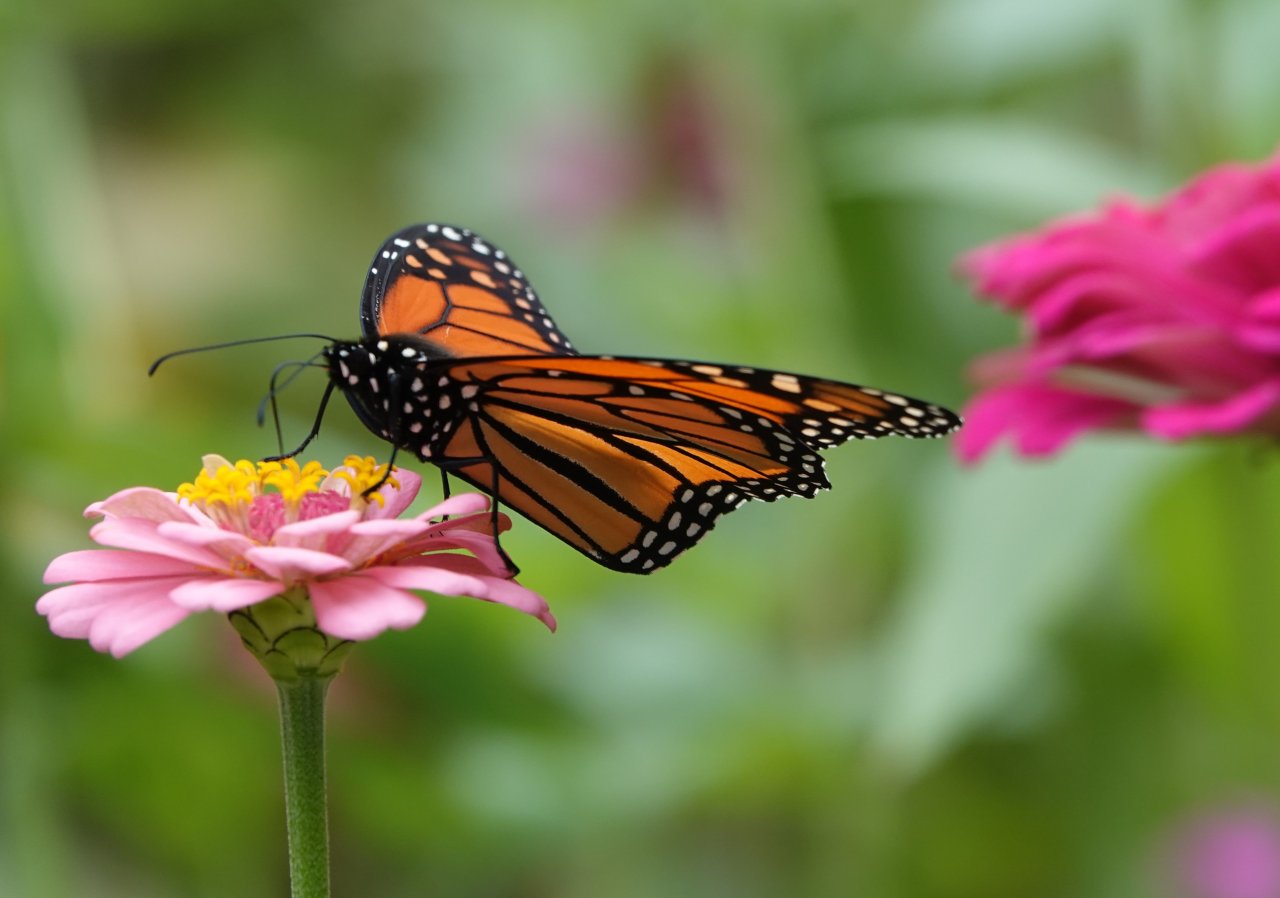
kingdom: Animalia
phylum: Arthropoda
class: Insecta
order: Lepidoptera
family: Nymphalidae
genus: Danaus
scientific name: Danaus plexippus
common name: Monarch
